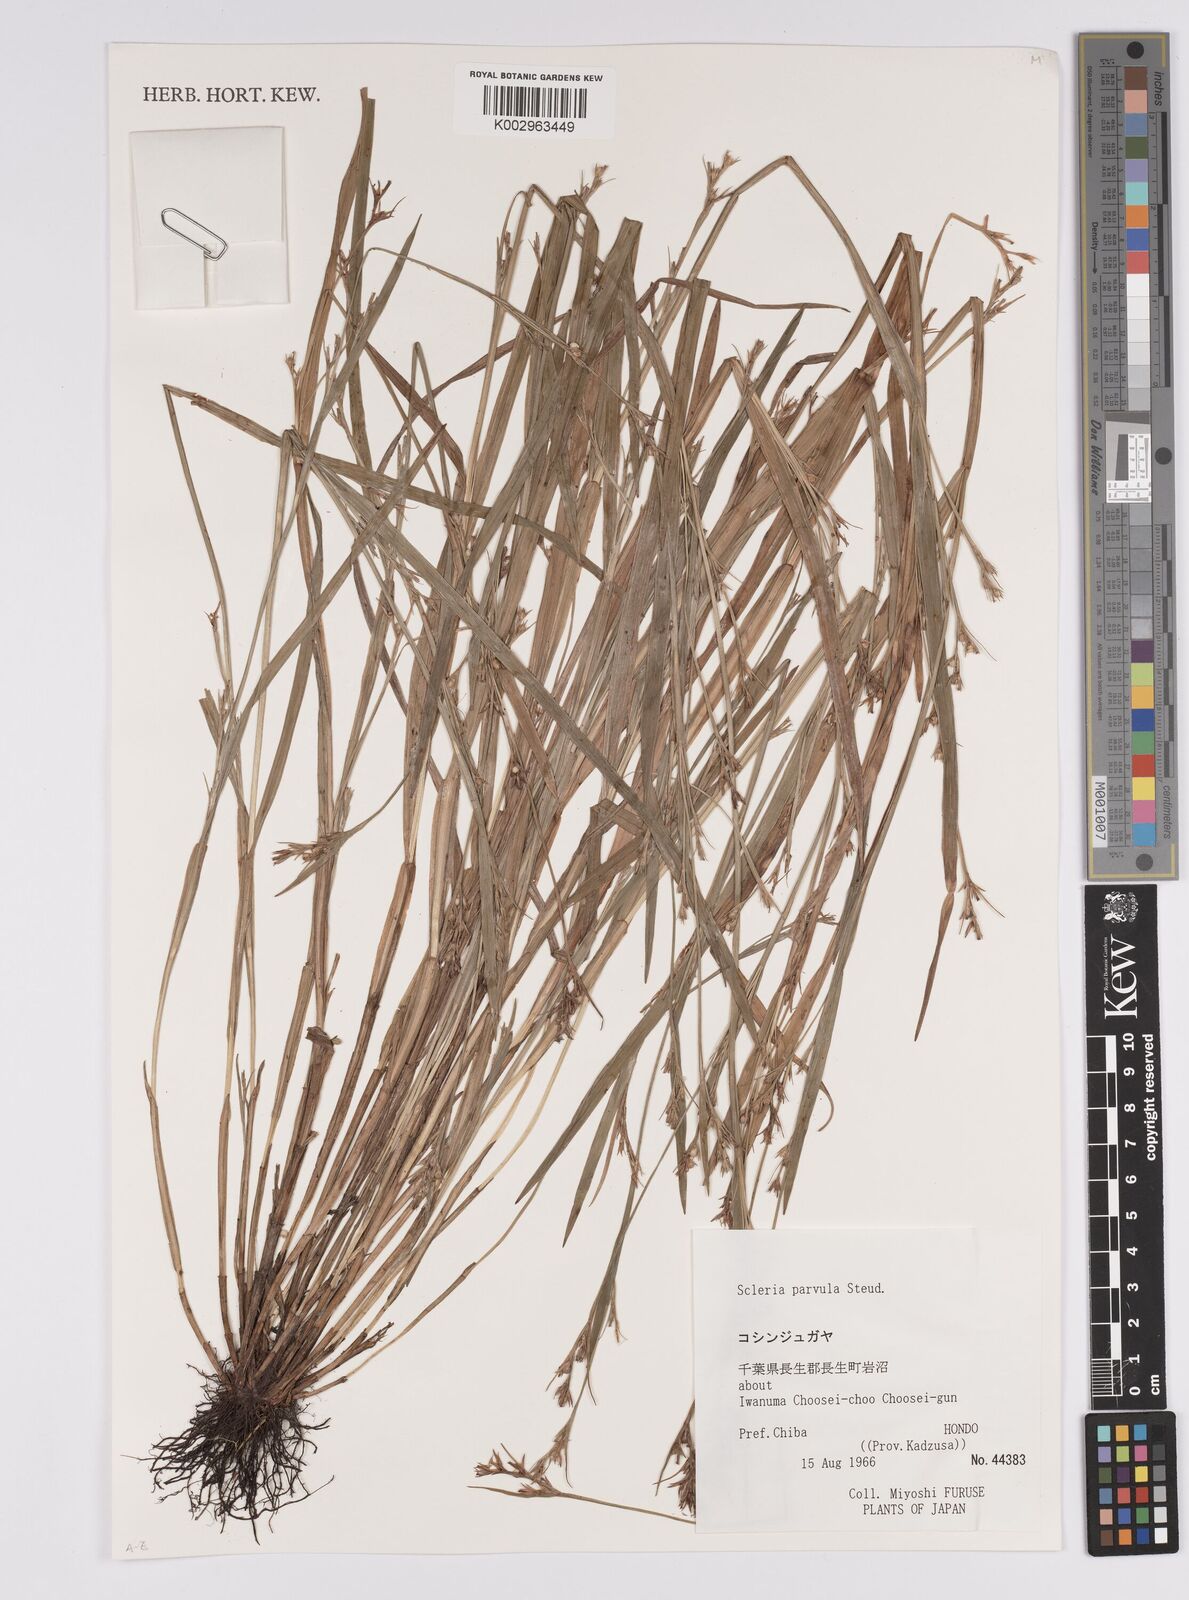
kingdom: Plantae
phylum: Tracheophyta
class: Liliopsida
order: Poales
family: Cyperaceae
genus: Scleria
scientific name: Scleria parvula
